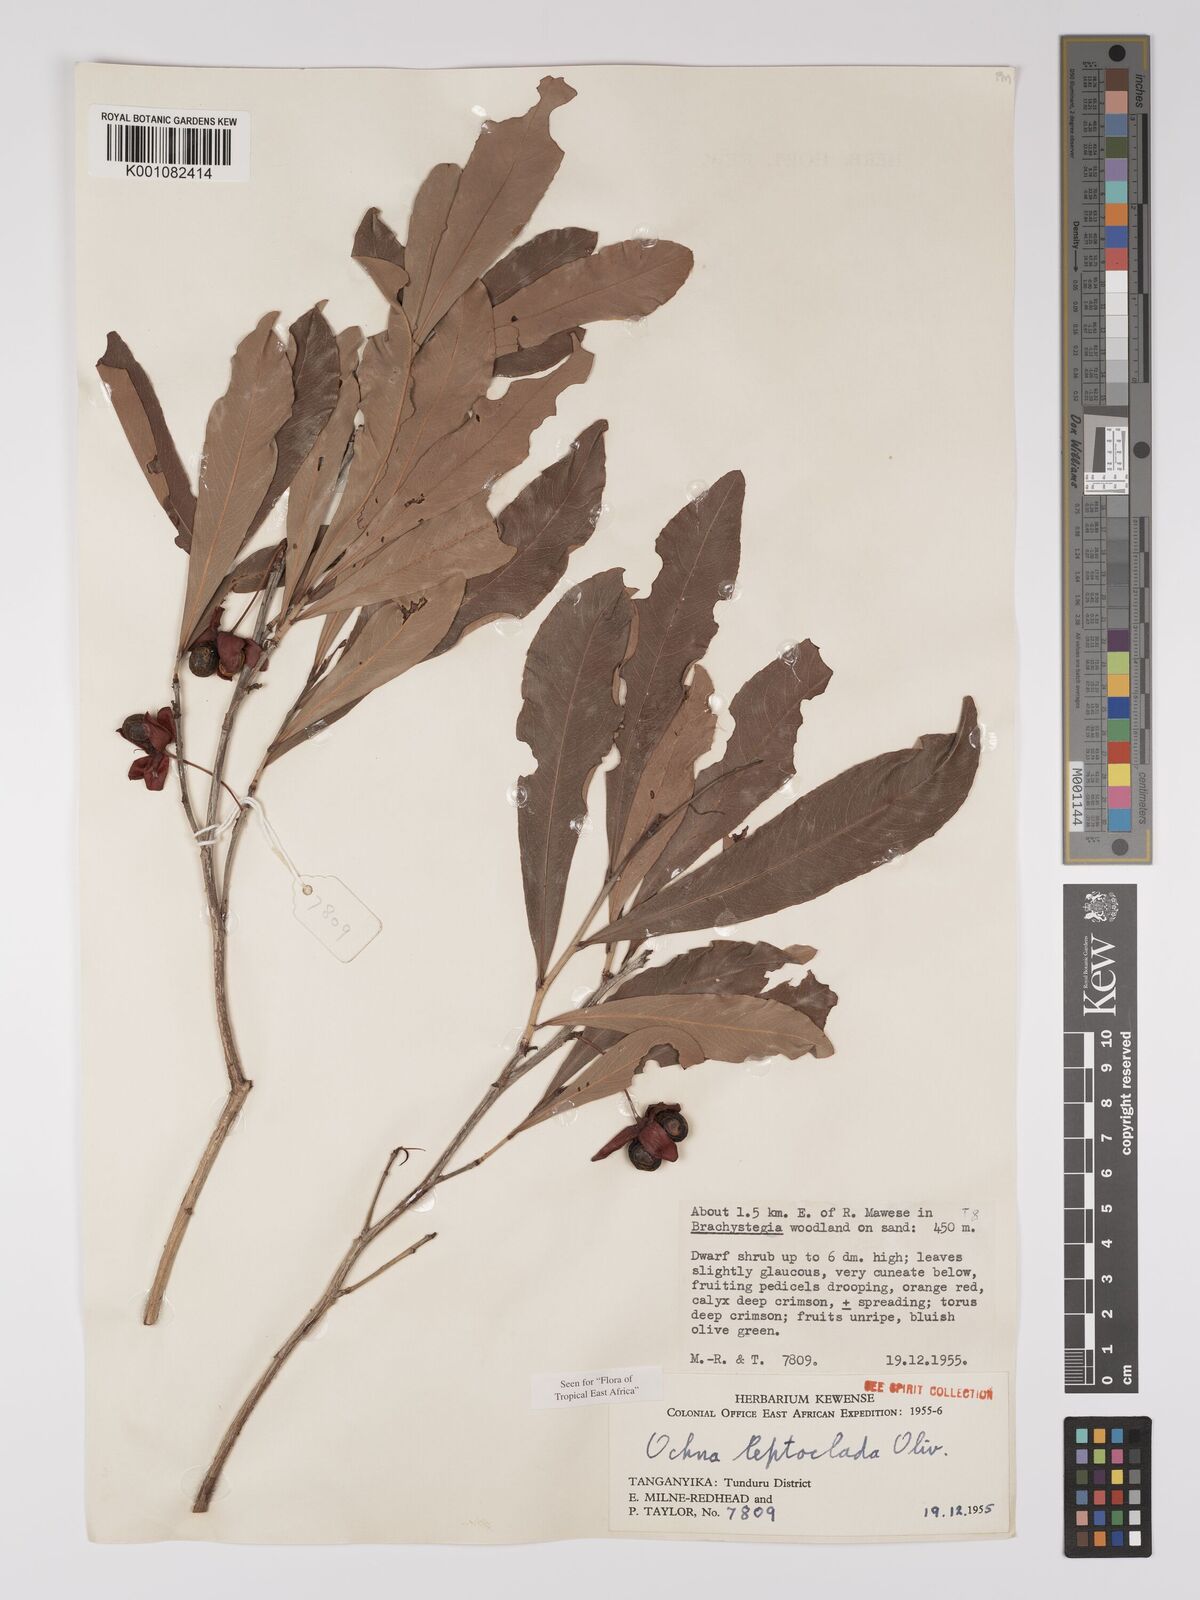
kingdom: Plantae
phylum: Tracheophyta
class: Magnoliopsida
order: Malpighiales
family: Ochnaceae
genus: Ochna
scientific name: Ochna leptoclada
